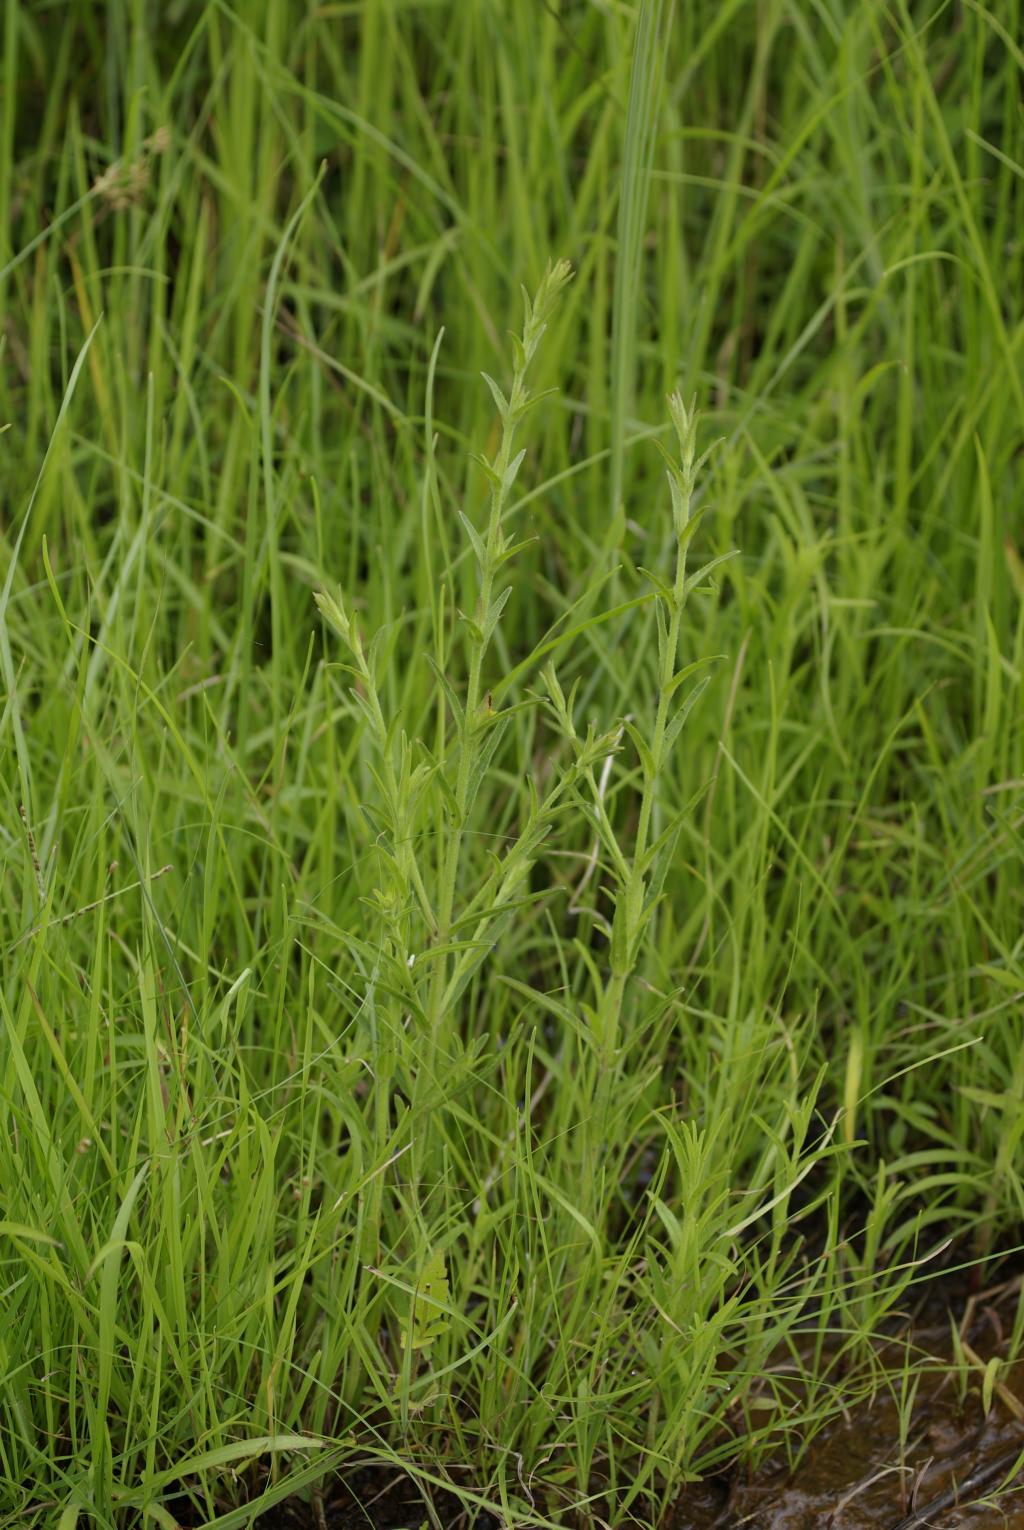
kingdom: Plantae
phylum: Tracheophyta
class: Magnoliopsida
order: Lamiales
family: Orobanchaceae
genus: Centranthera
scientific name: Centranthera cochinchinensis
